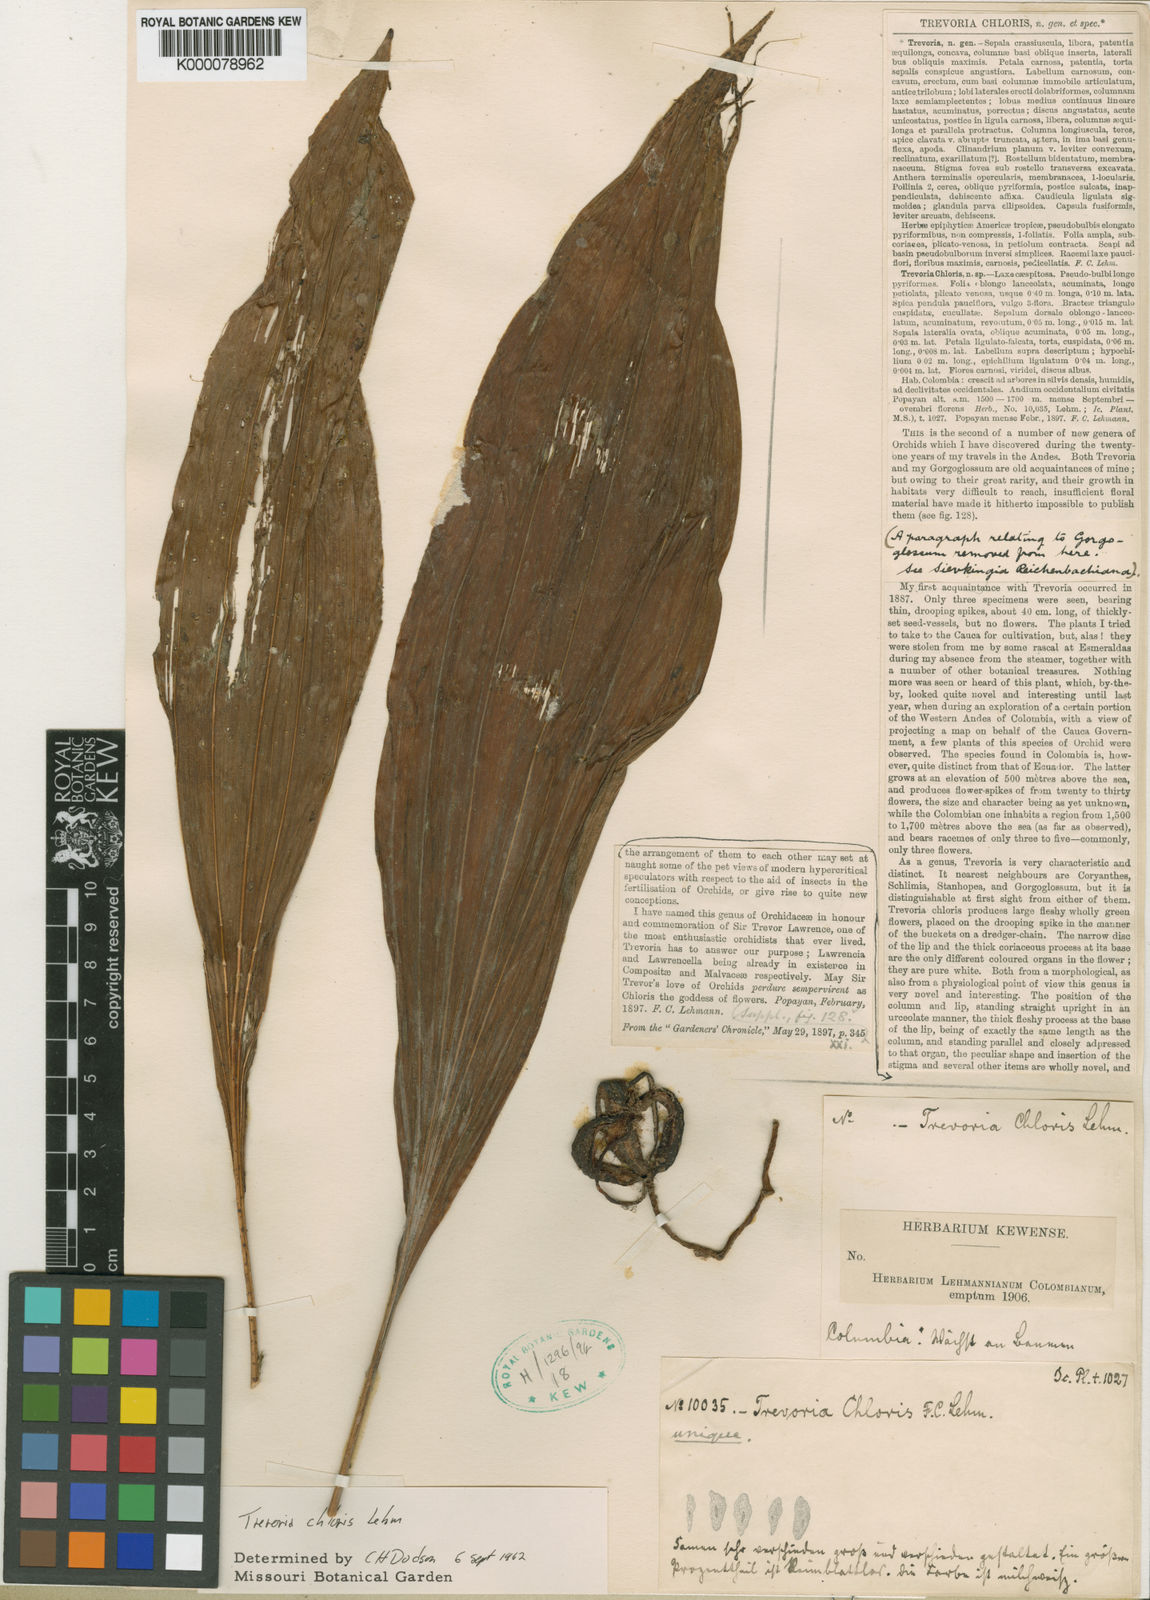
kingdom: Plantae
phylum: Tracheophyta
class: Liliopsida
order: Asparagales
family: Orchidaceae
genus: Trevoria
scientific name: Trevoria chloris
